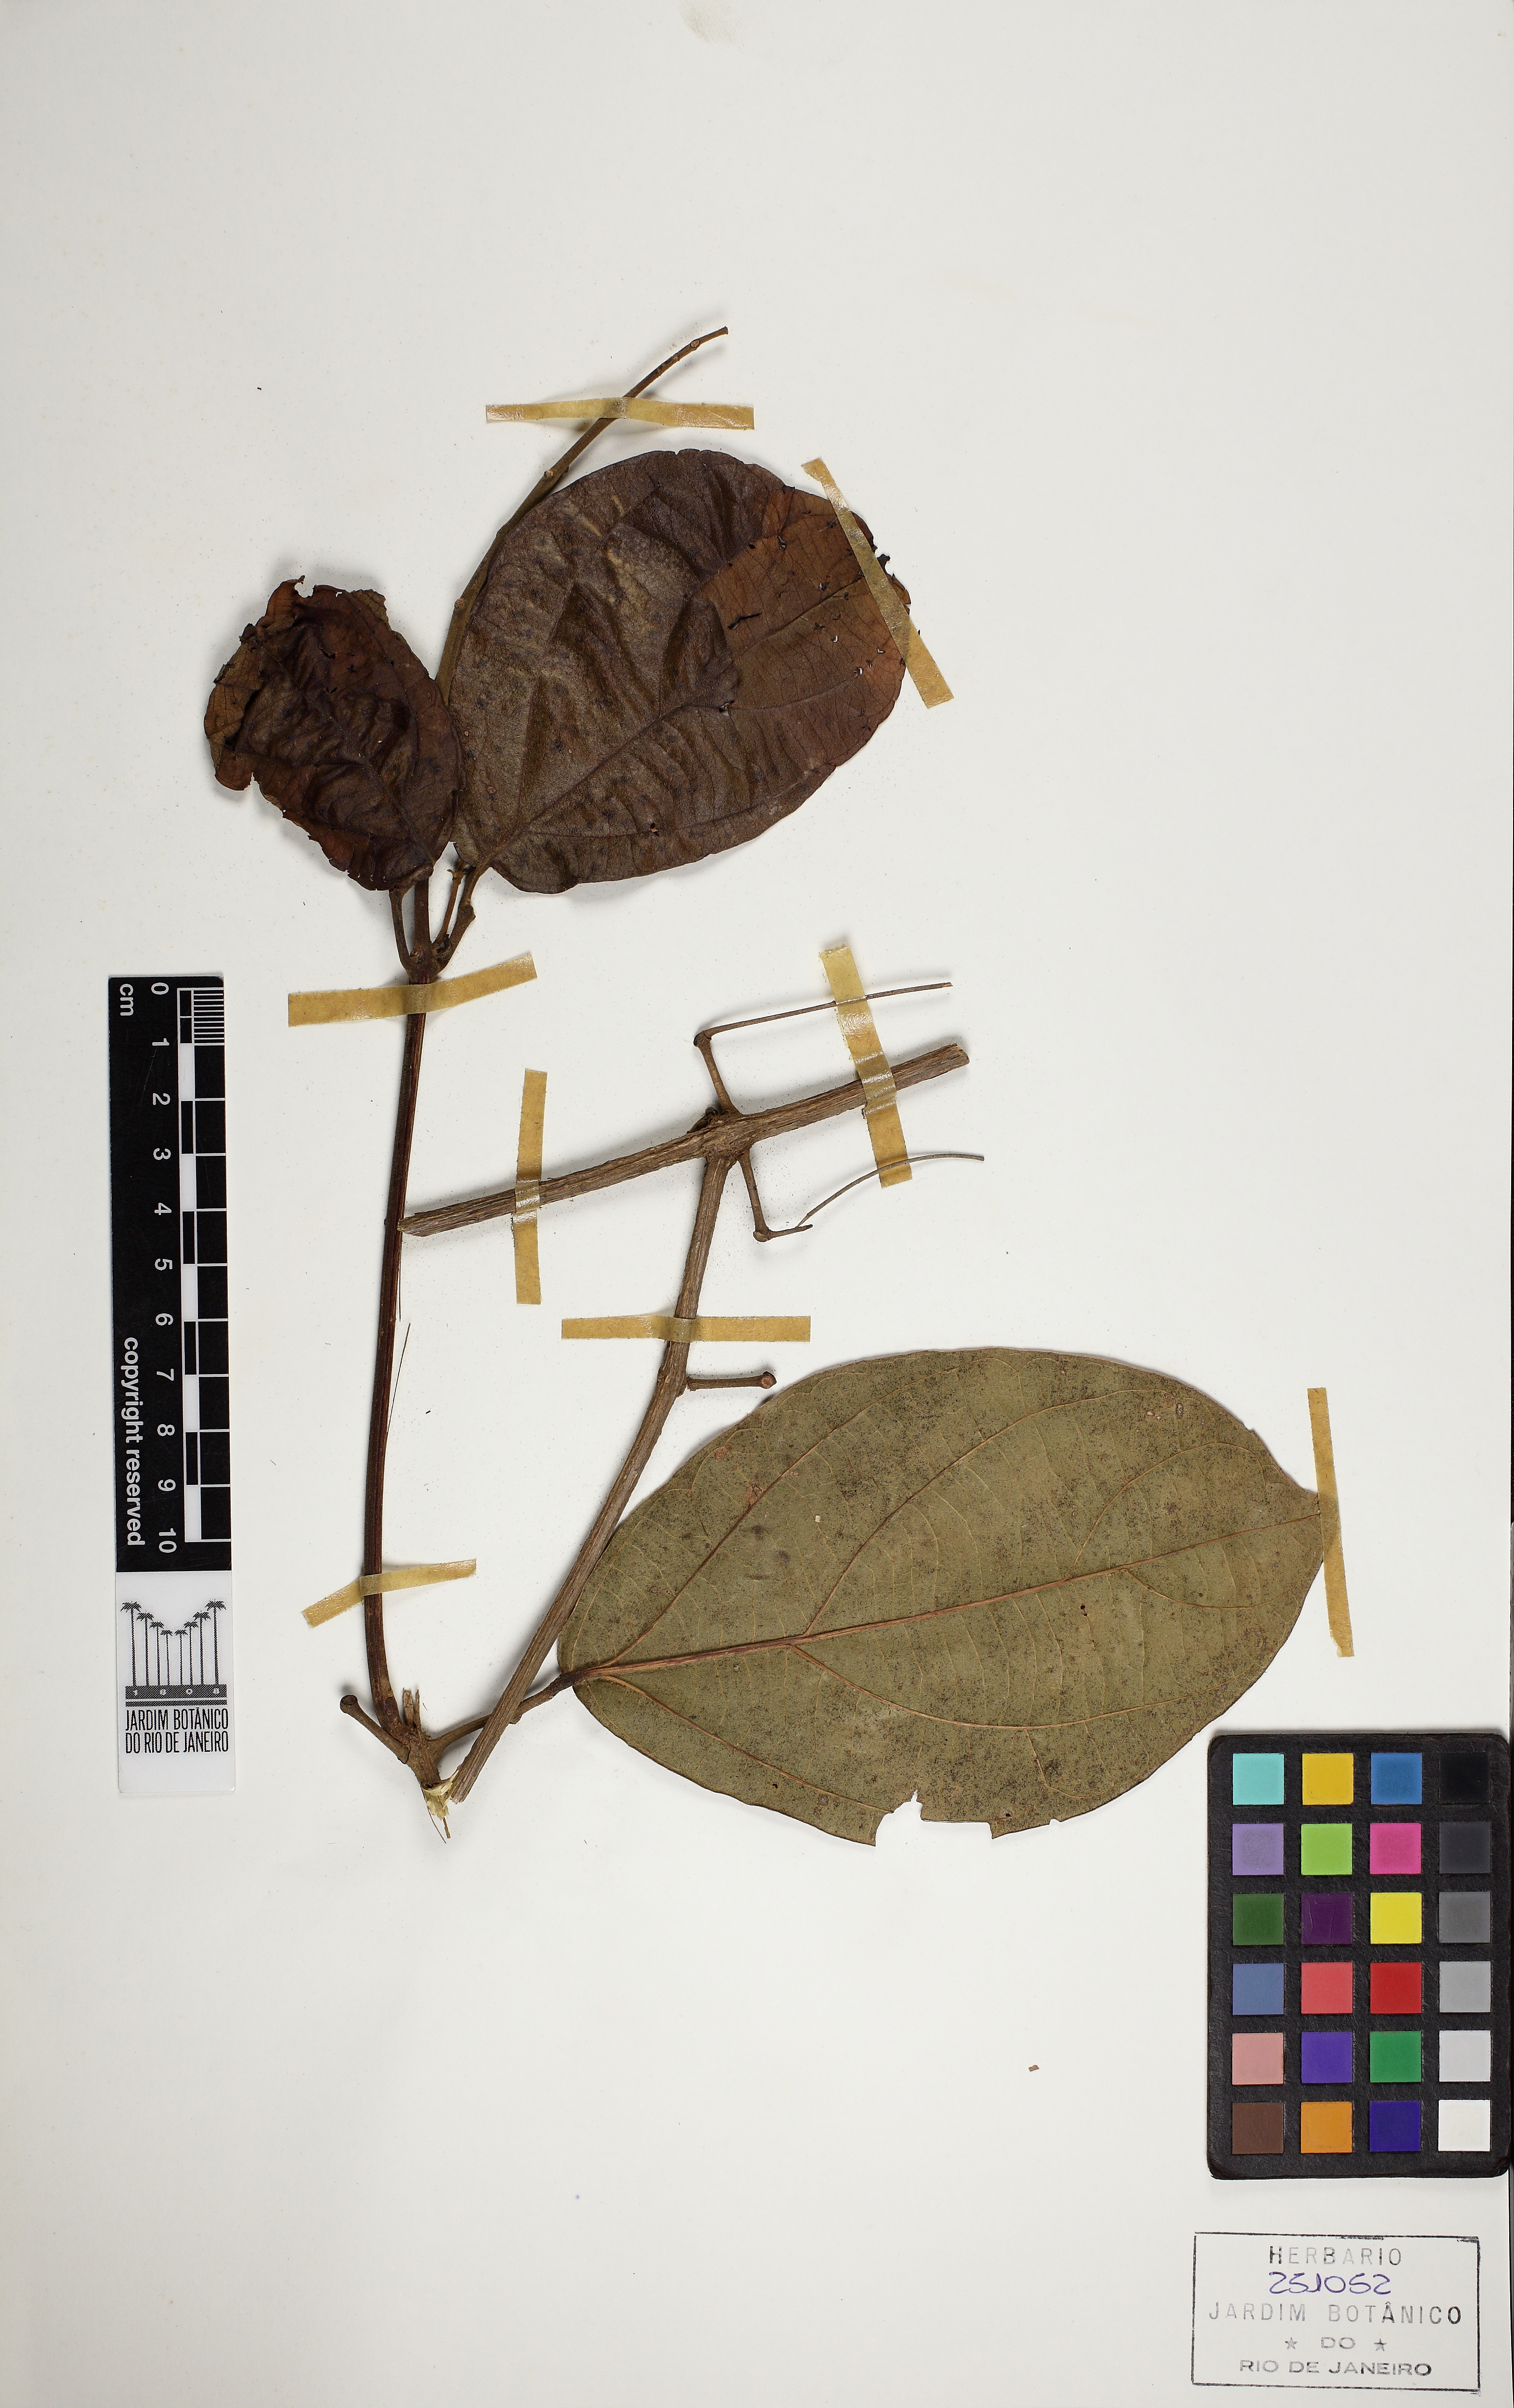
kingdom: Plantae
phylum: Tracheophyta
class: Magnoliopsida
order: Lamiales
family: Bignoniaceae
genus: Tanaecium
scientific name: Tanaecium pyramidatum
